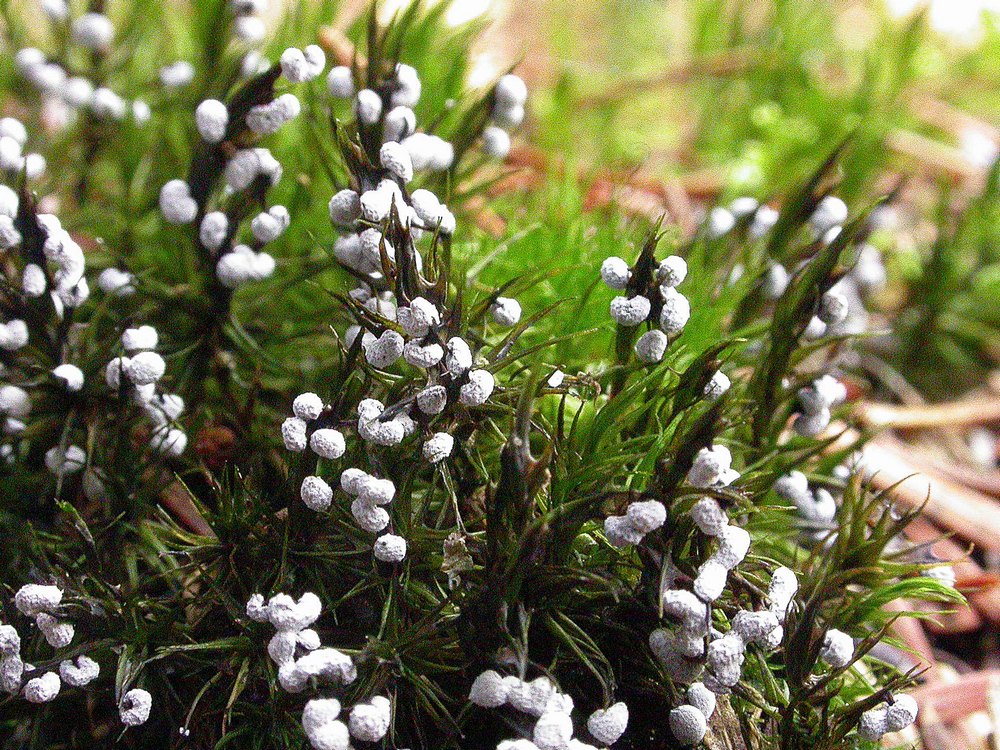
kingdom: Protozoa
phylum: Mycetozoa
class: Myxomycetes
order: Physarales
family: Didymiaceae
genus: Didymium
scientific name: Didymium melanospermum
